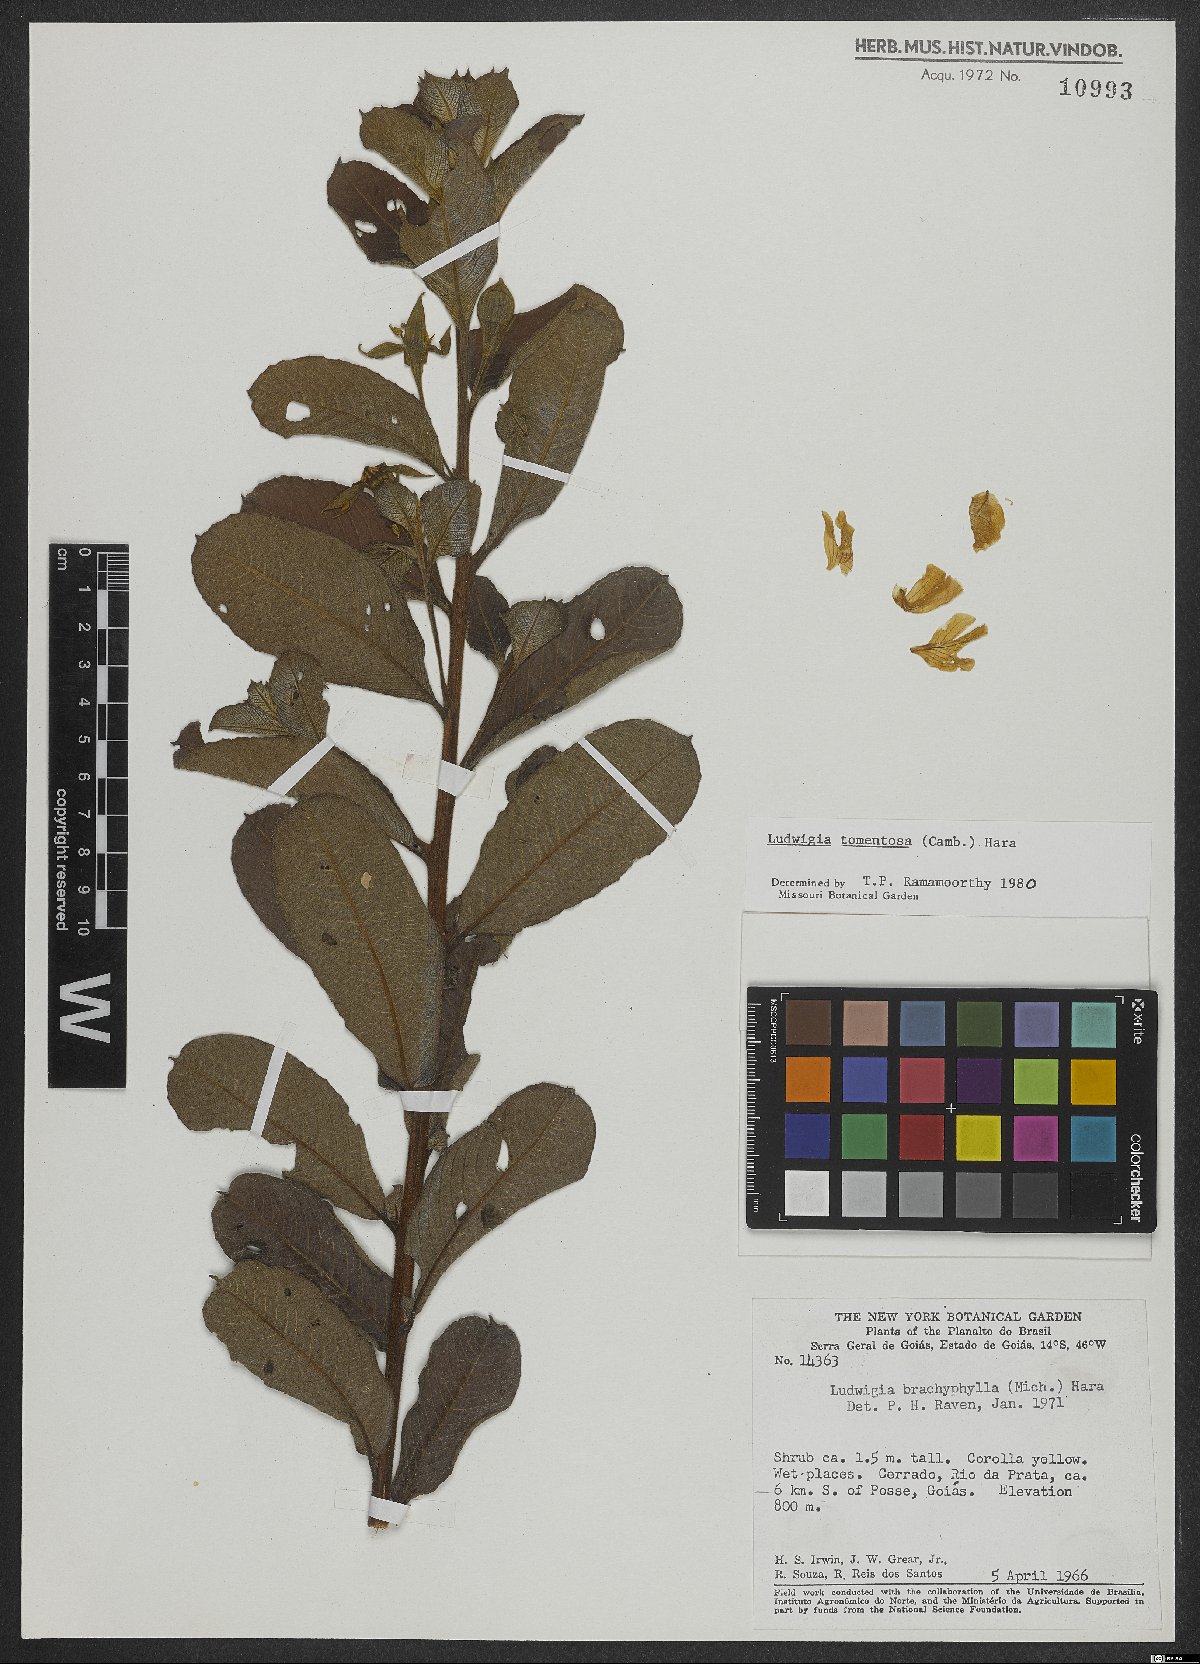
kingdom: Plantae
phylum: Tracheophyta
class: Magnoliopsida
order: Myrtales
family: Onagraceae
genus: Ludwigia
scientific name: Ludwigia tomentosa
